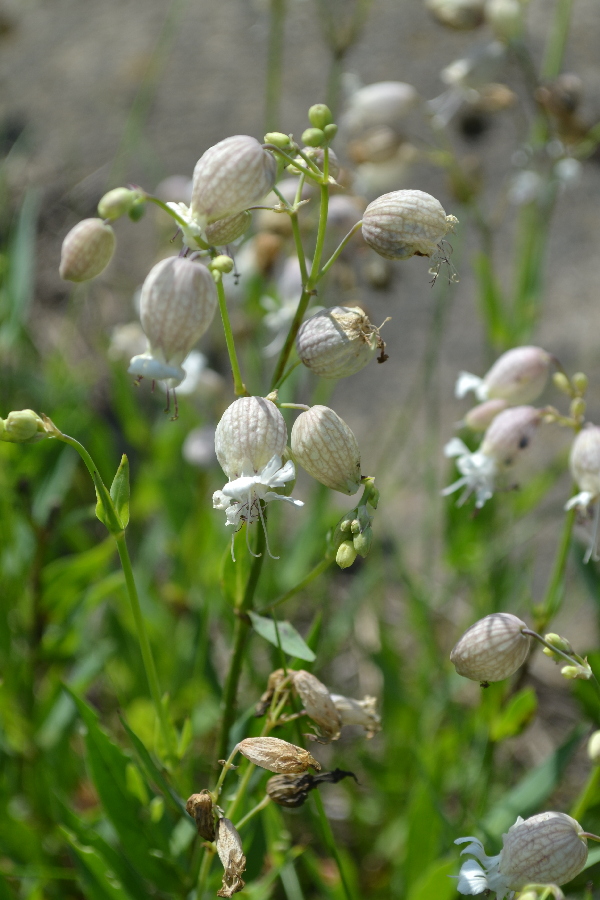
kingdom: Plantae
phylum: Tracheophyta
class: Magnoliopsida
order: Caryophyllales
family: Caryophyllaceae
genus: Silene
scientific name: Silene behen
